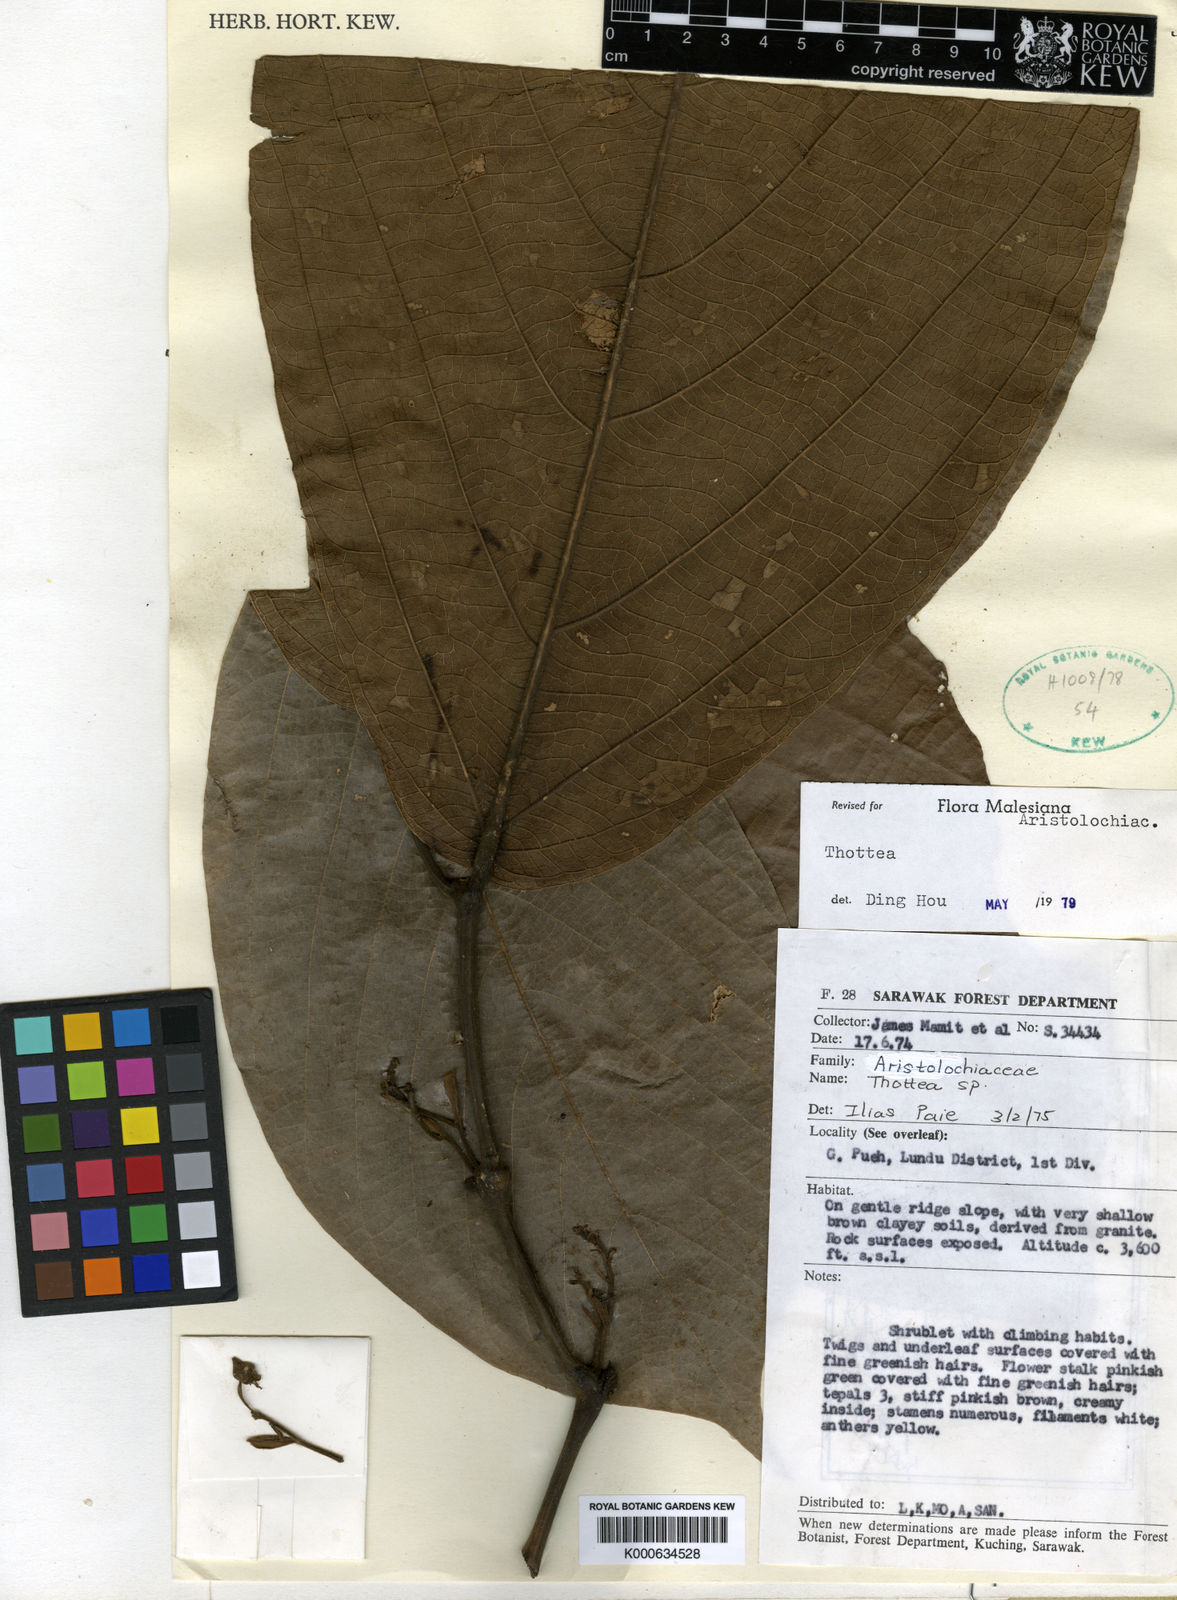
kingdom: Plantae
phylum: Tracheophyta
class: Magnoliopsida
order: Piperales
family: Aristolochiaceae
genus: Thottea
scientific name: Thottea triserialis
